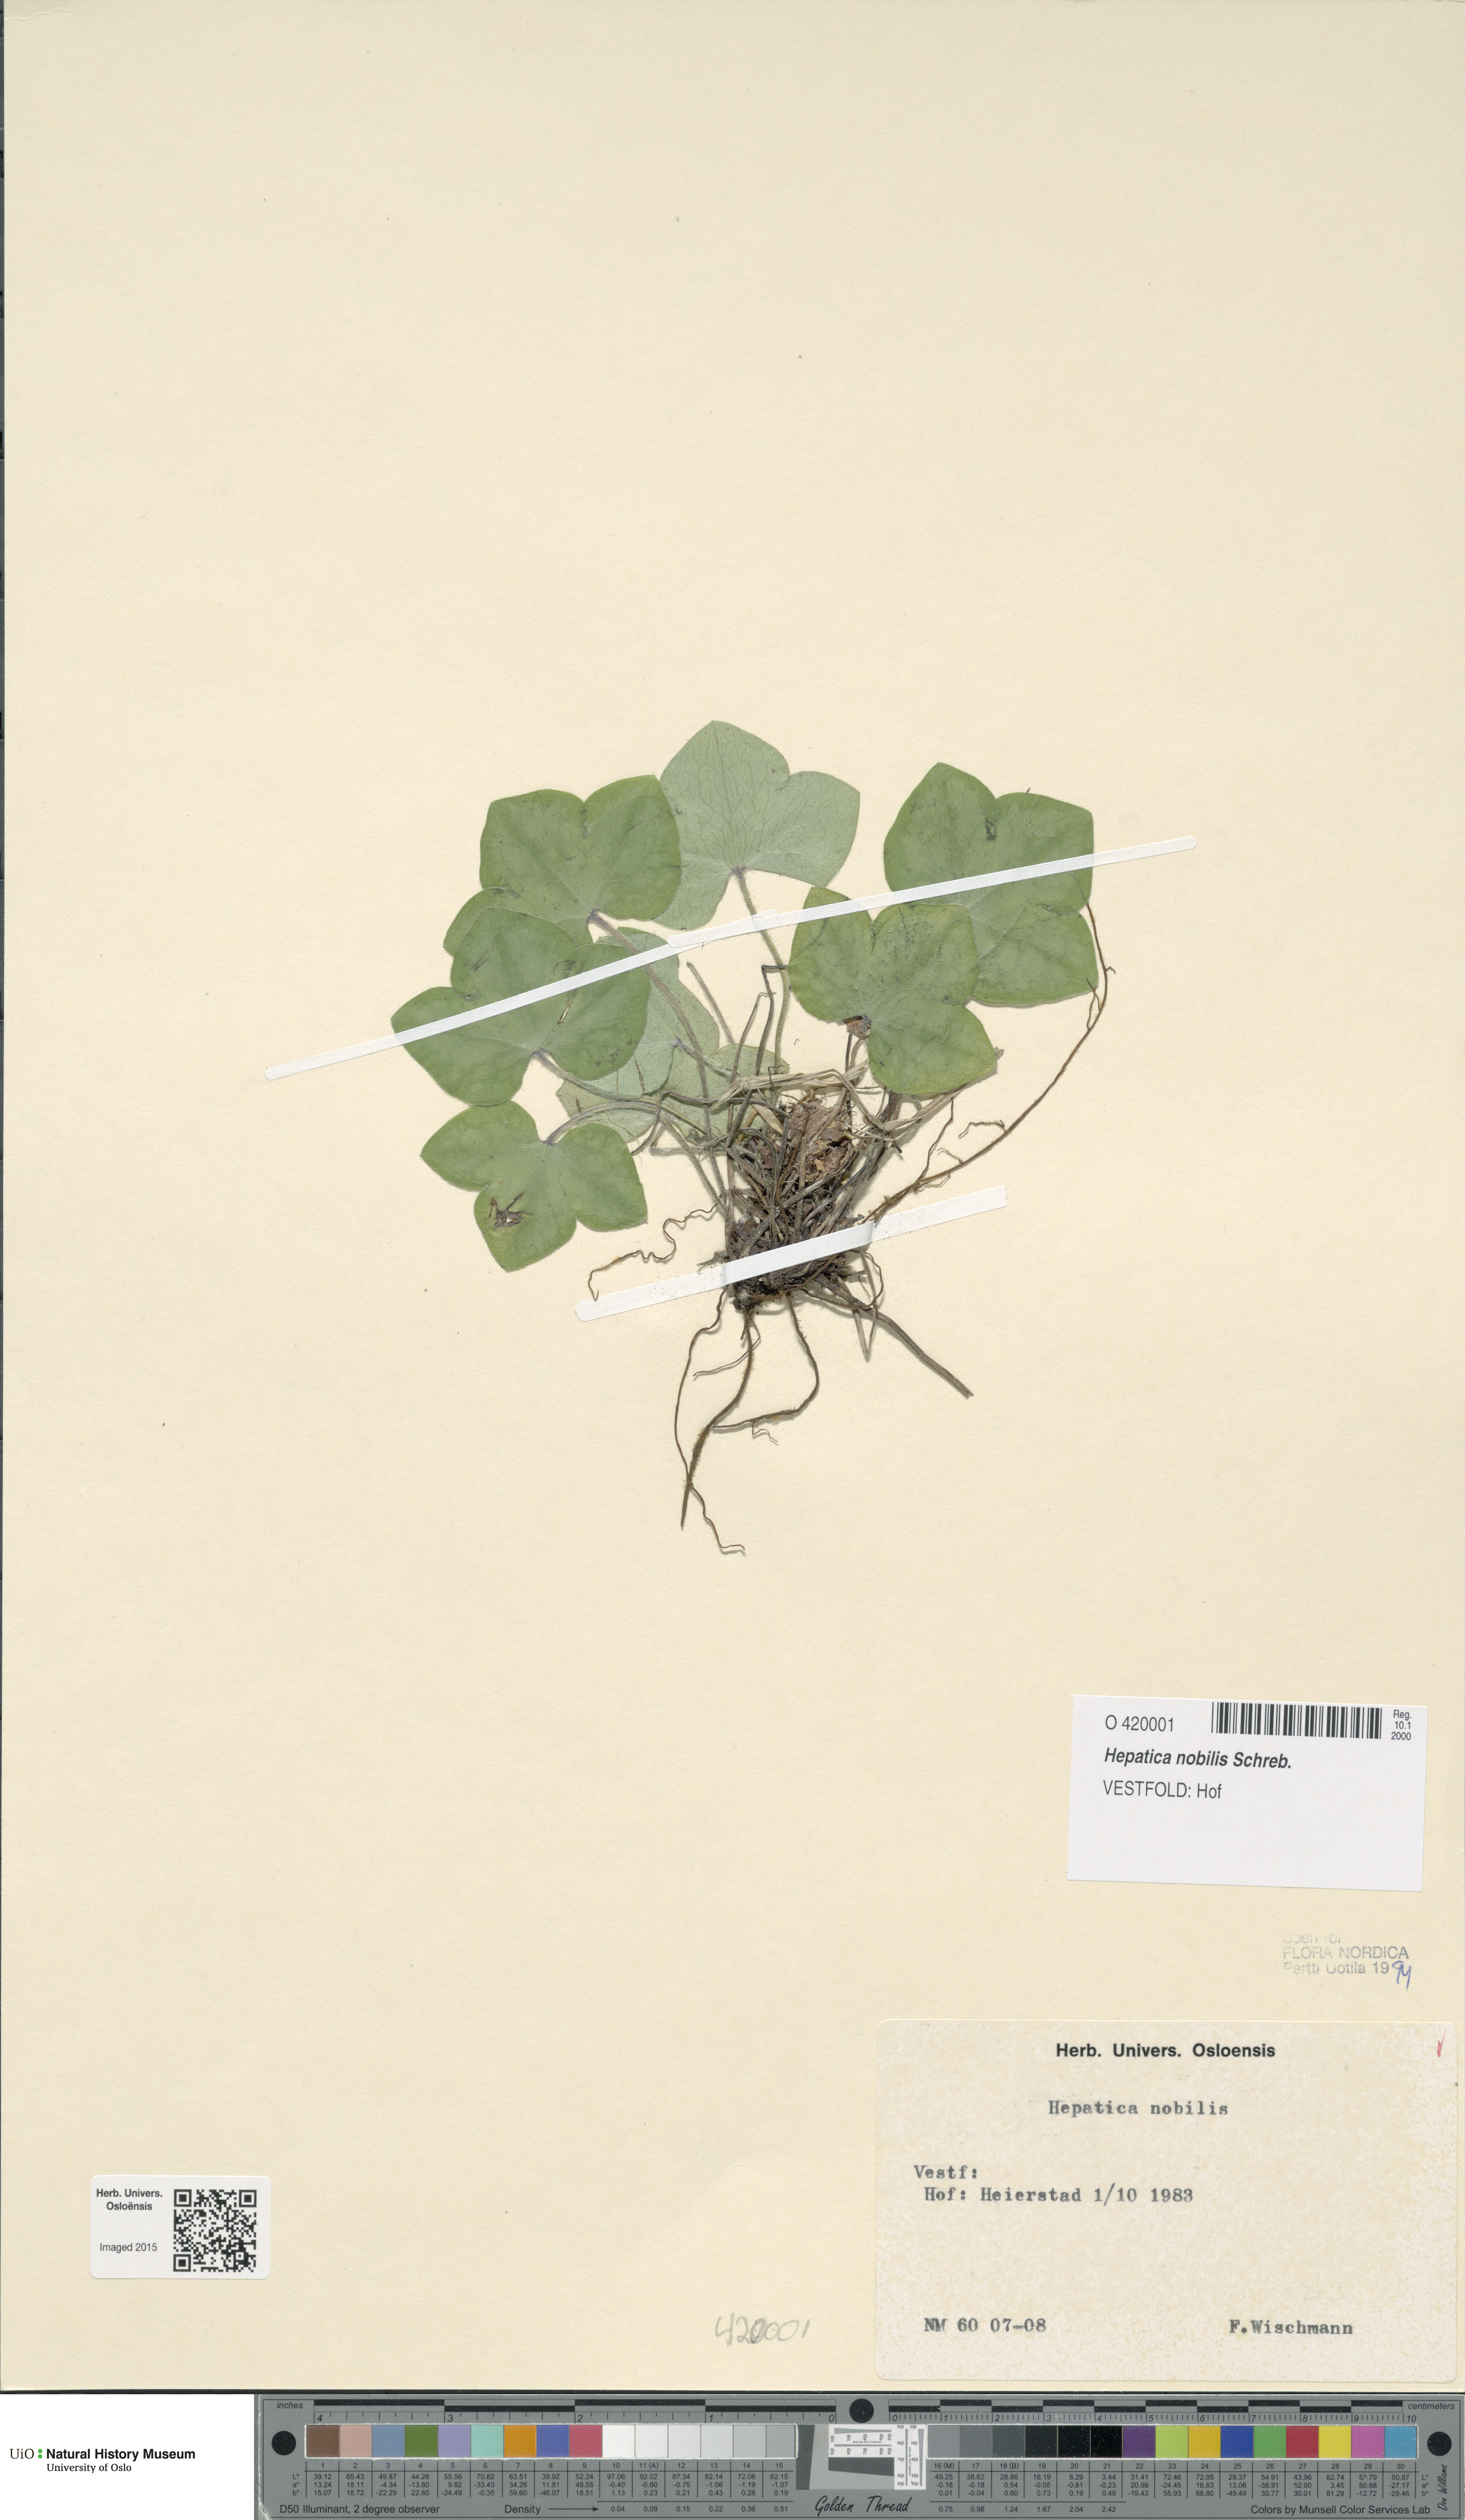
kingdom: Plantae
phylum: Tracheophyta
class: Magnoliopsida
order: Ranunculales
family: Ranunculaceae
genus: Hepatica
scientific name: Hepatica nobilis
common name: Liverleaf
